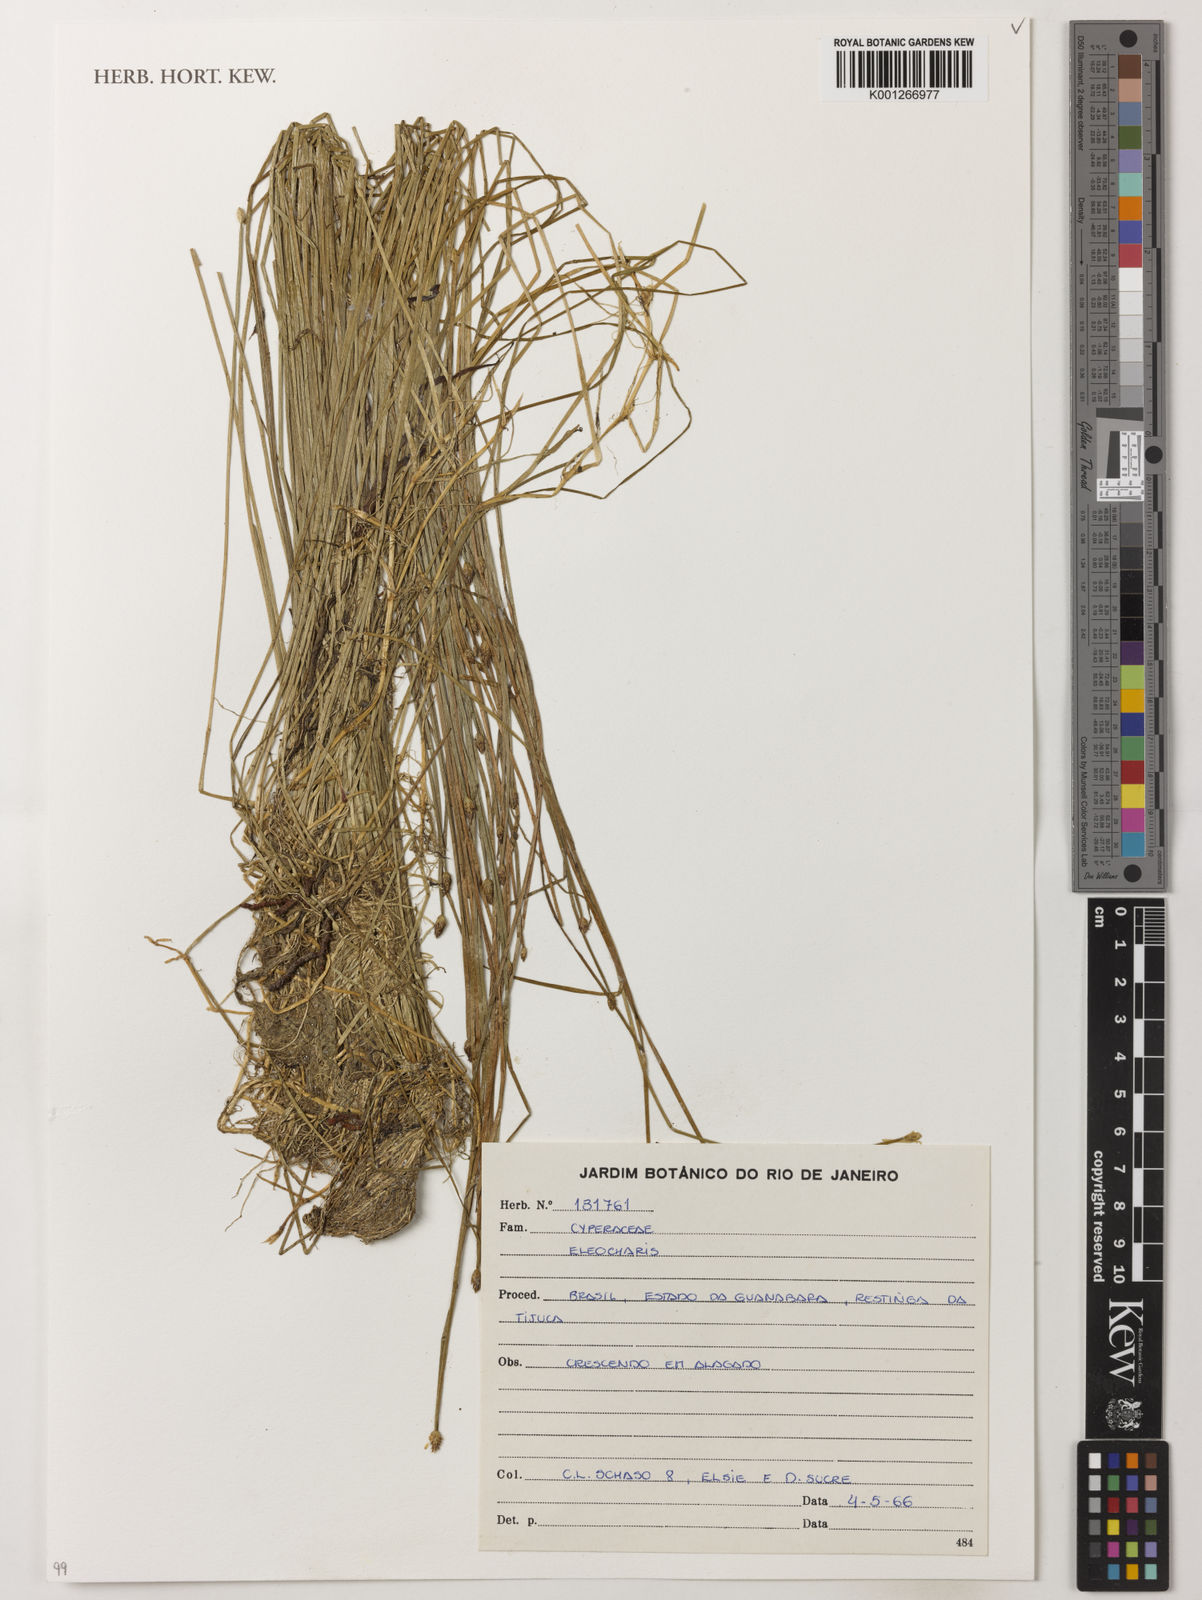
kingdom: Plantae
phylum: Tracheophyta
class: Liliopsida
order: Poales
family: Cyperaceae
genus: Eleocharis
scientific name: Eleocharis
